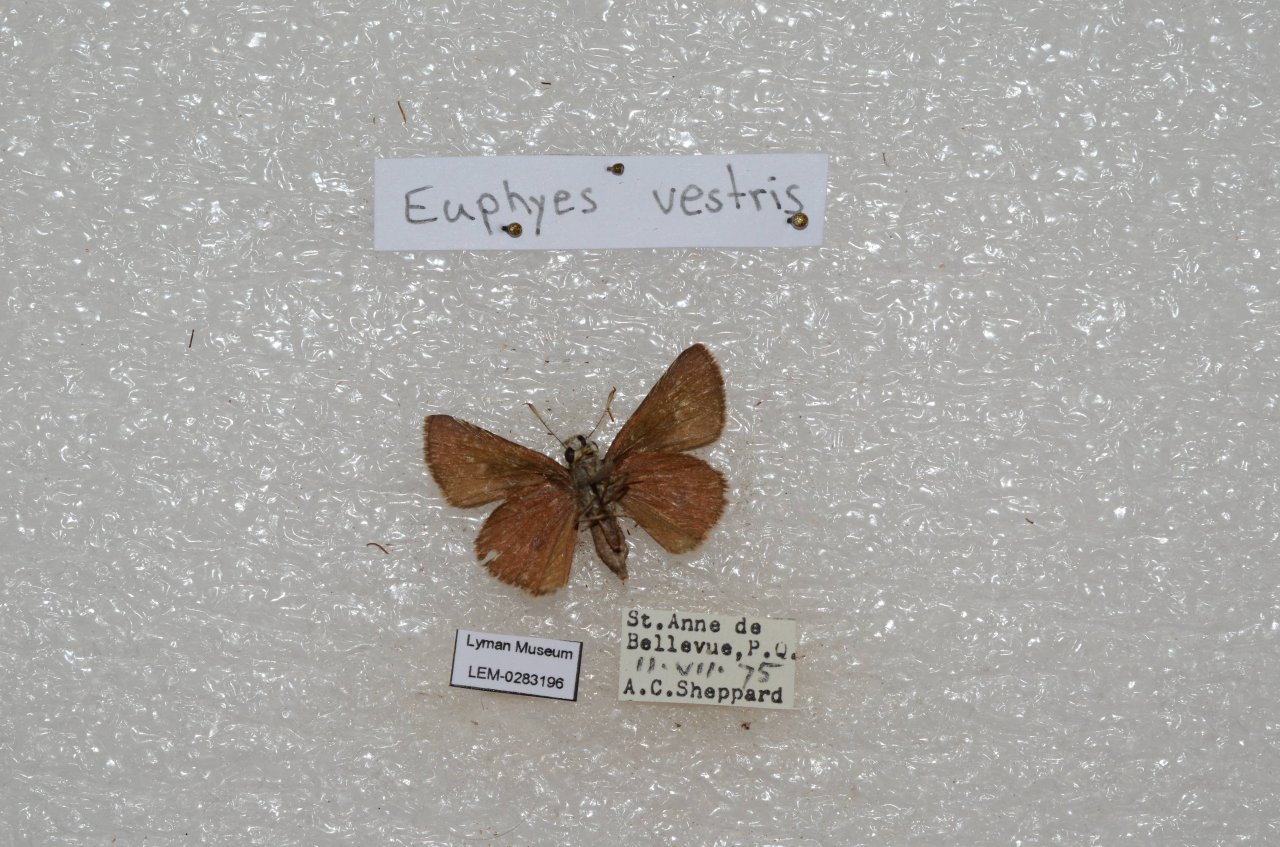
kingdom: Animalia
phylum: Arthropoda
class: Insecta
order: Lepidoptera
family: Hesperiidae
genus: Euphyes
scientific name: Euphyes vestris
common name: Dun Skipper
